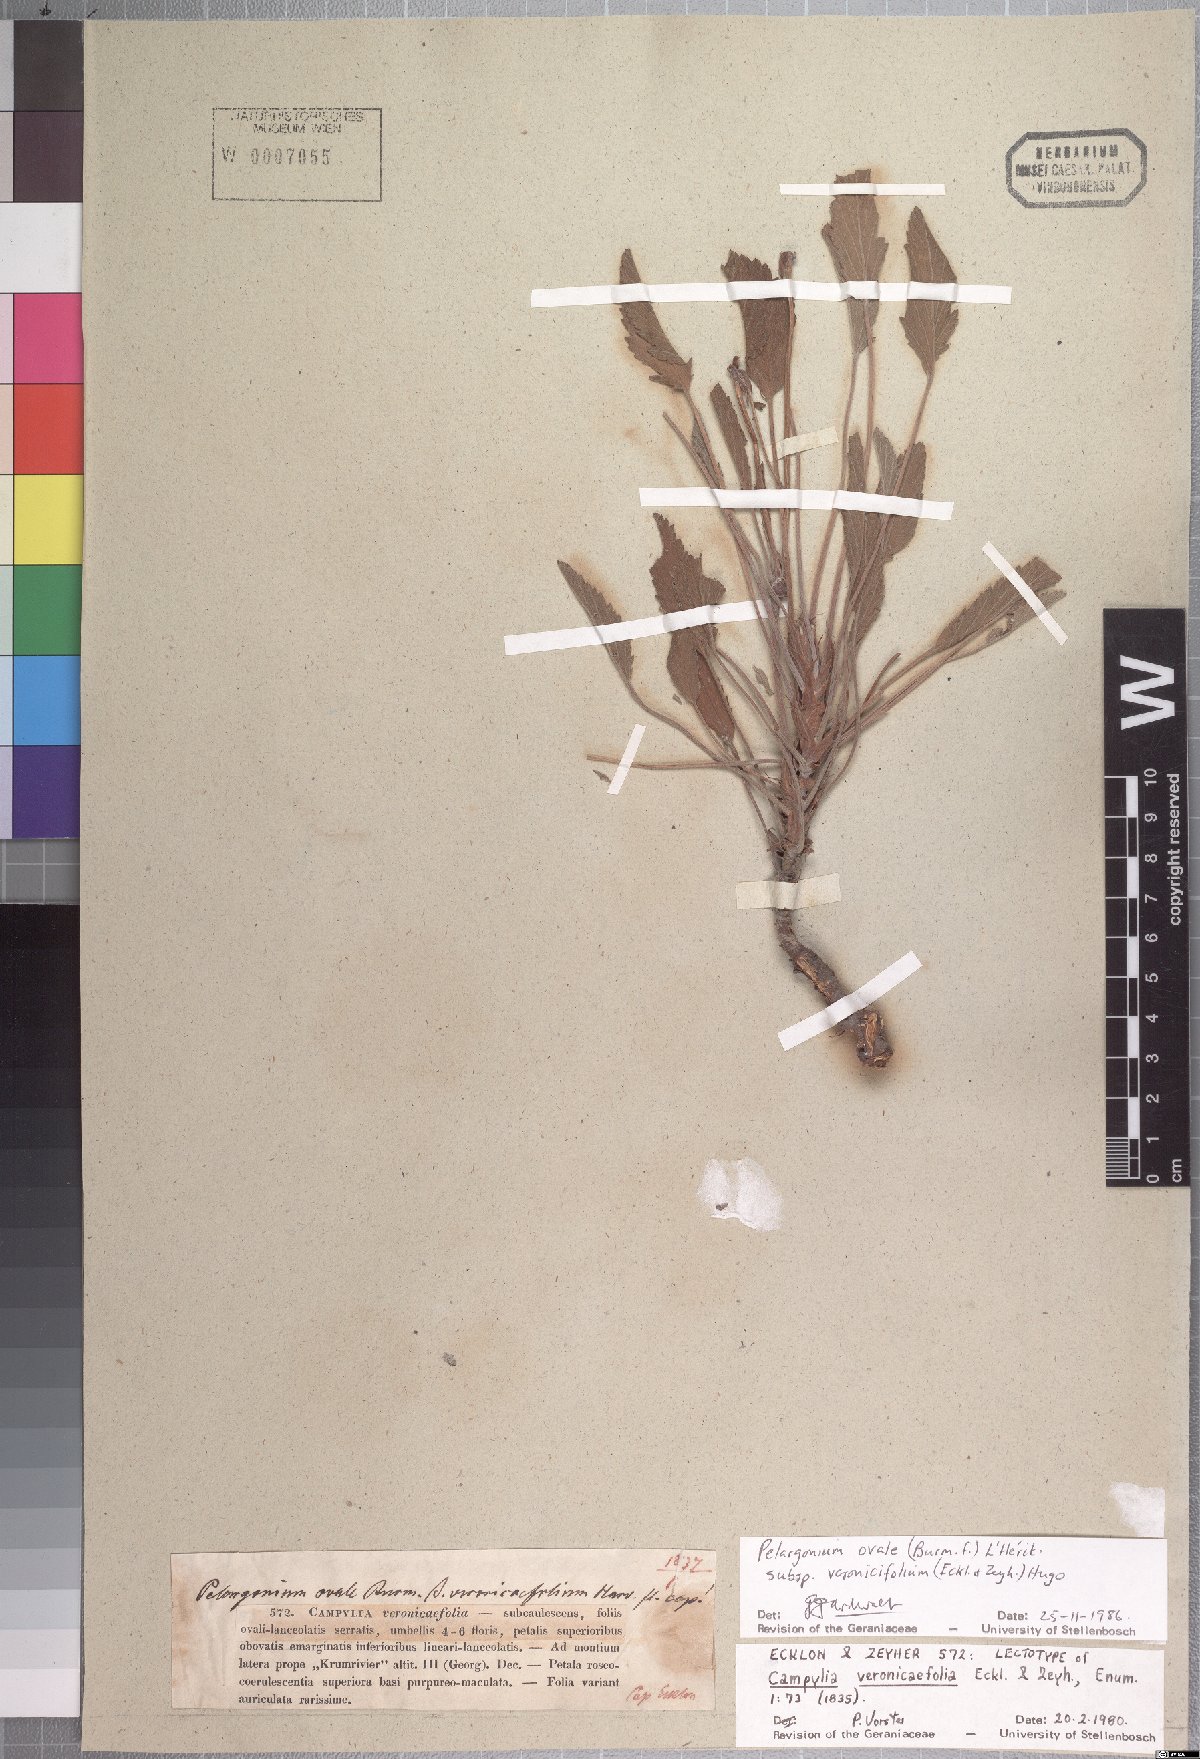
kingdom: Plantae
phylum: Tracheophyta
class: Magnoliopsida
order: Geraniales
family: Geraniaceae
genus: Pelargonium
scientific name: Pelargonium ovale
